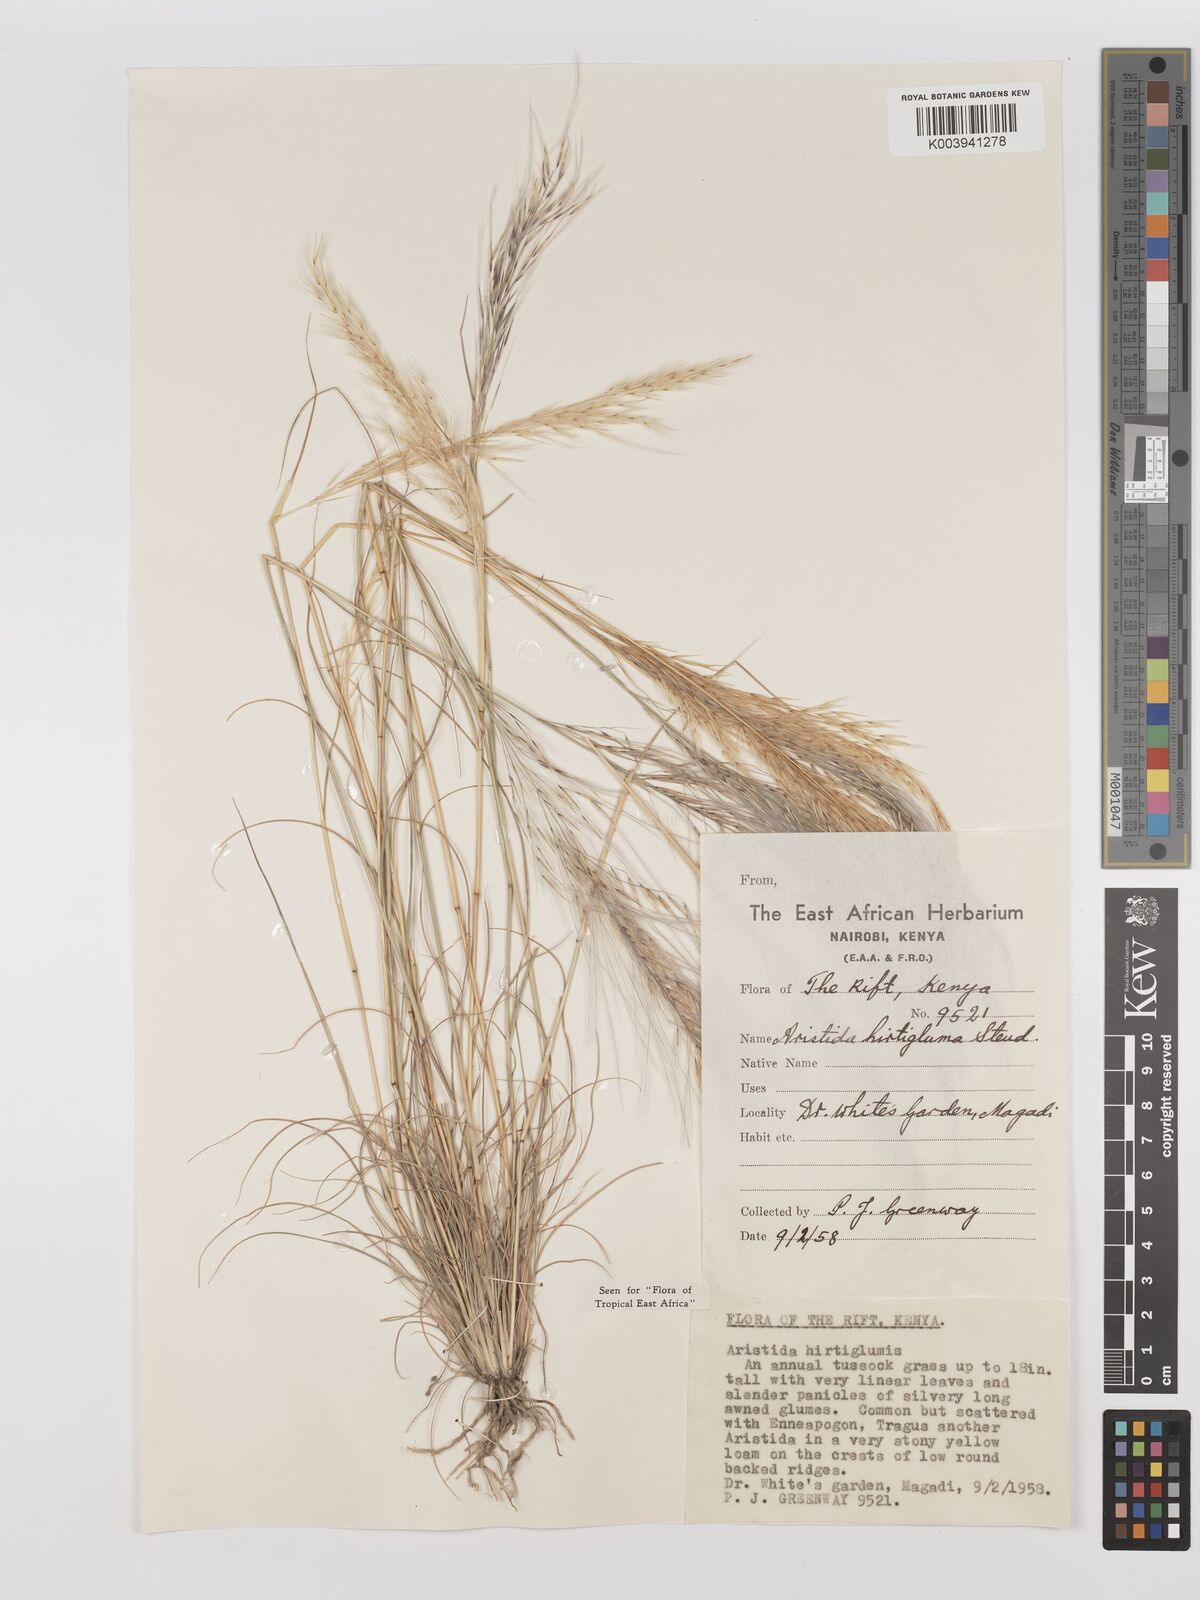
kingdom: Plantae
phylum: Tracheophyta
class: Liliopsida
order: Poales
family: Poaceae
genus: Stipagrostis
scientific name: Stipagrostis hirtigluma
